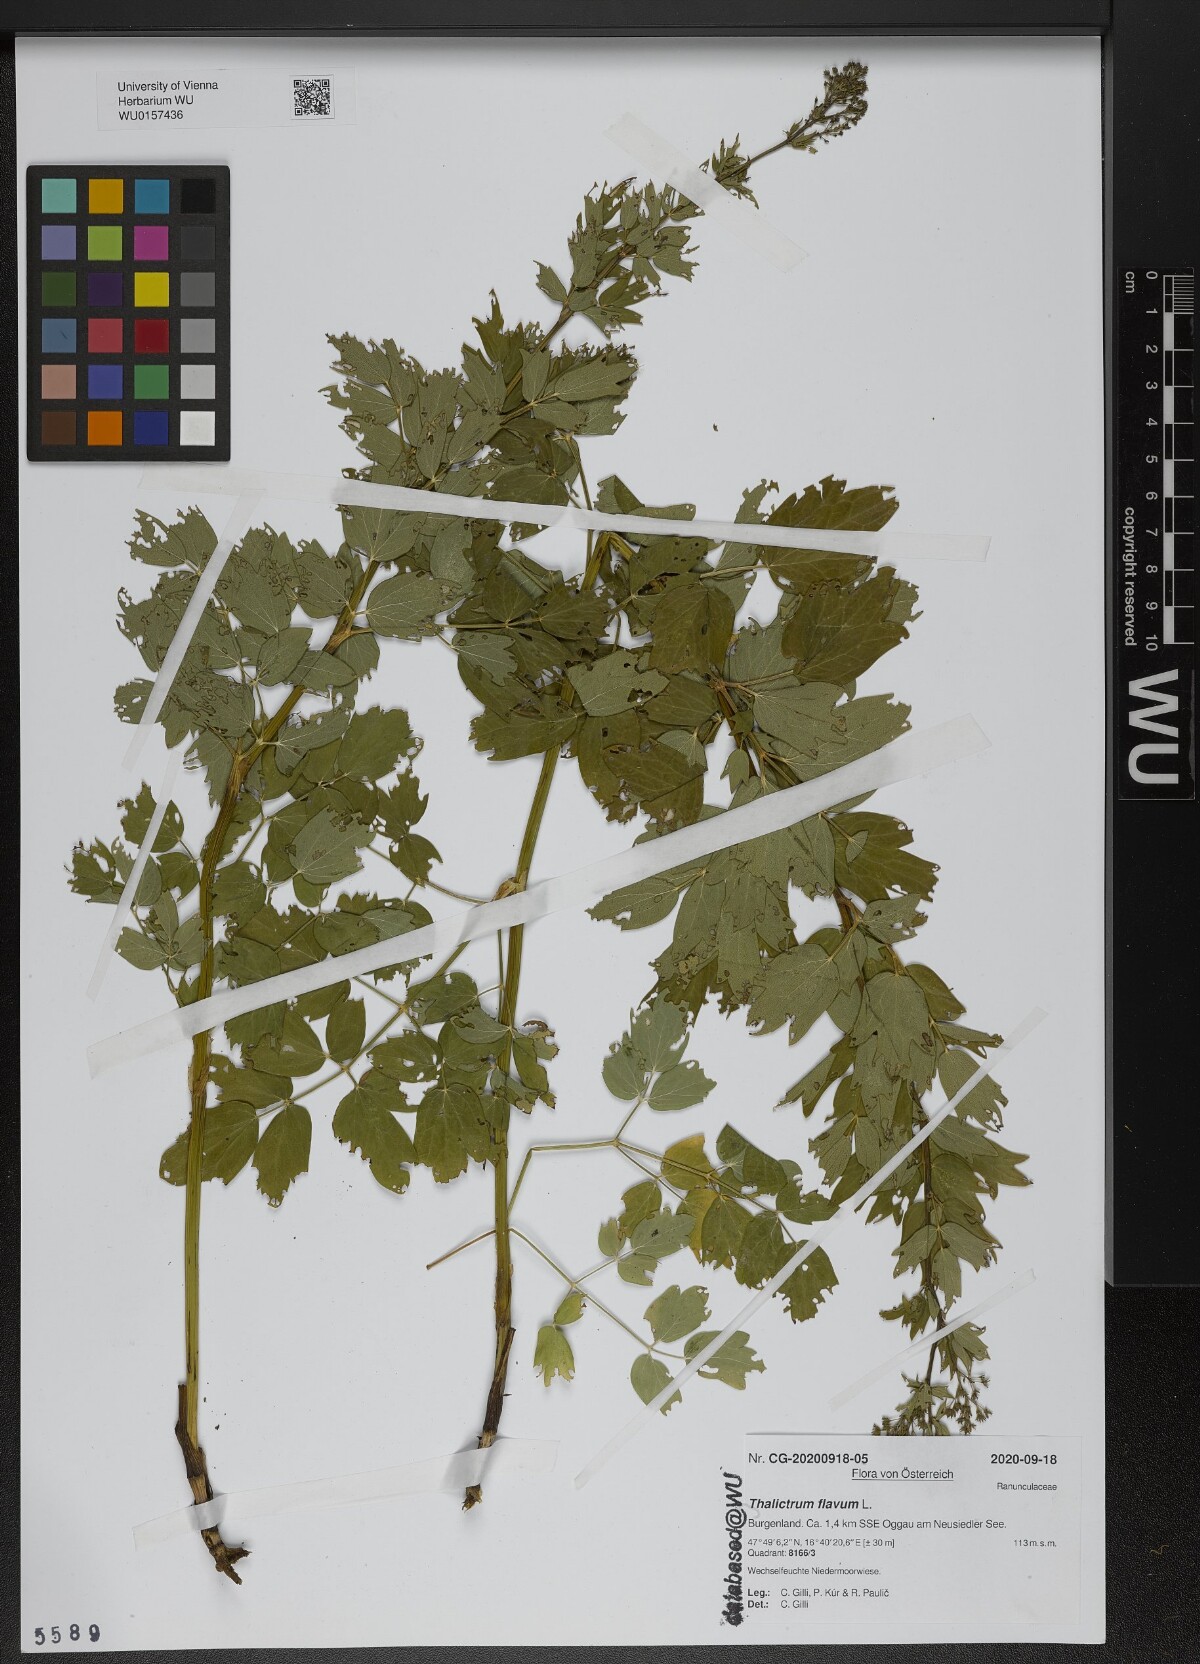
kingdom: Plantae
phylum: Tracheophyta
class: Magnoliopsida
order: Ranunculales
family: Ranunculaceae
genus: Thalictrum
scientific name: Thalictrum flavum
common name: Common meadow-rue
